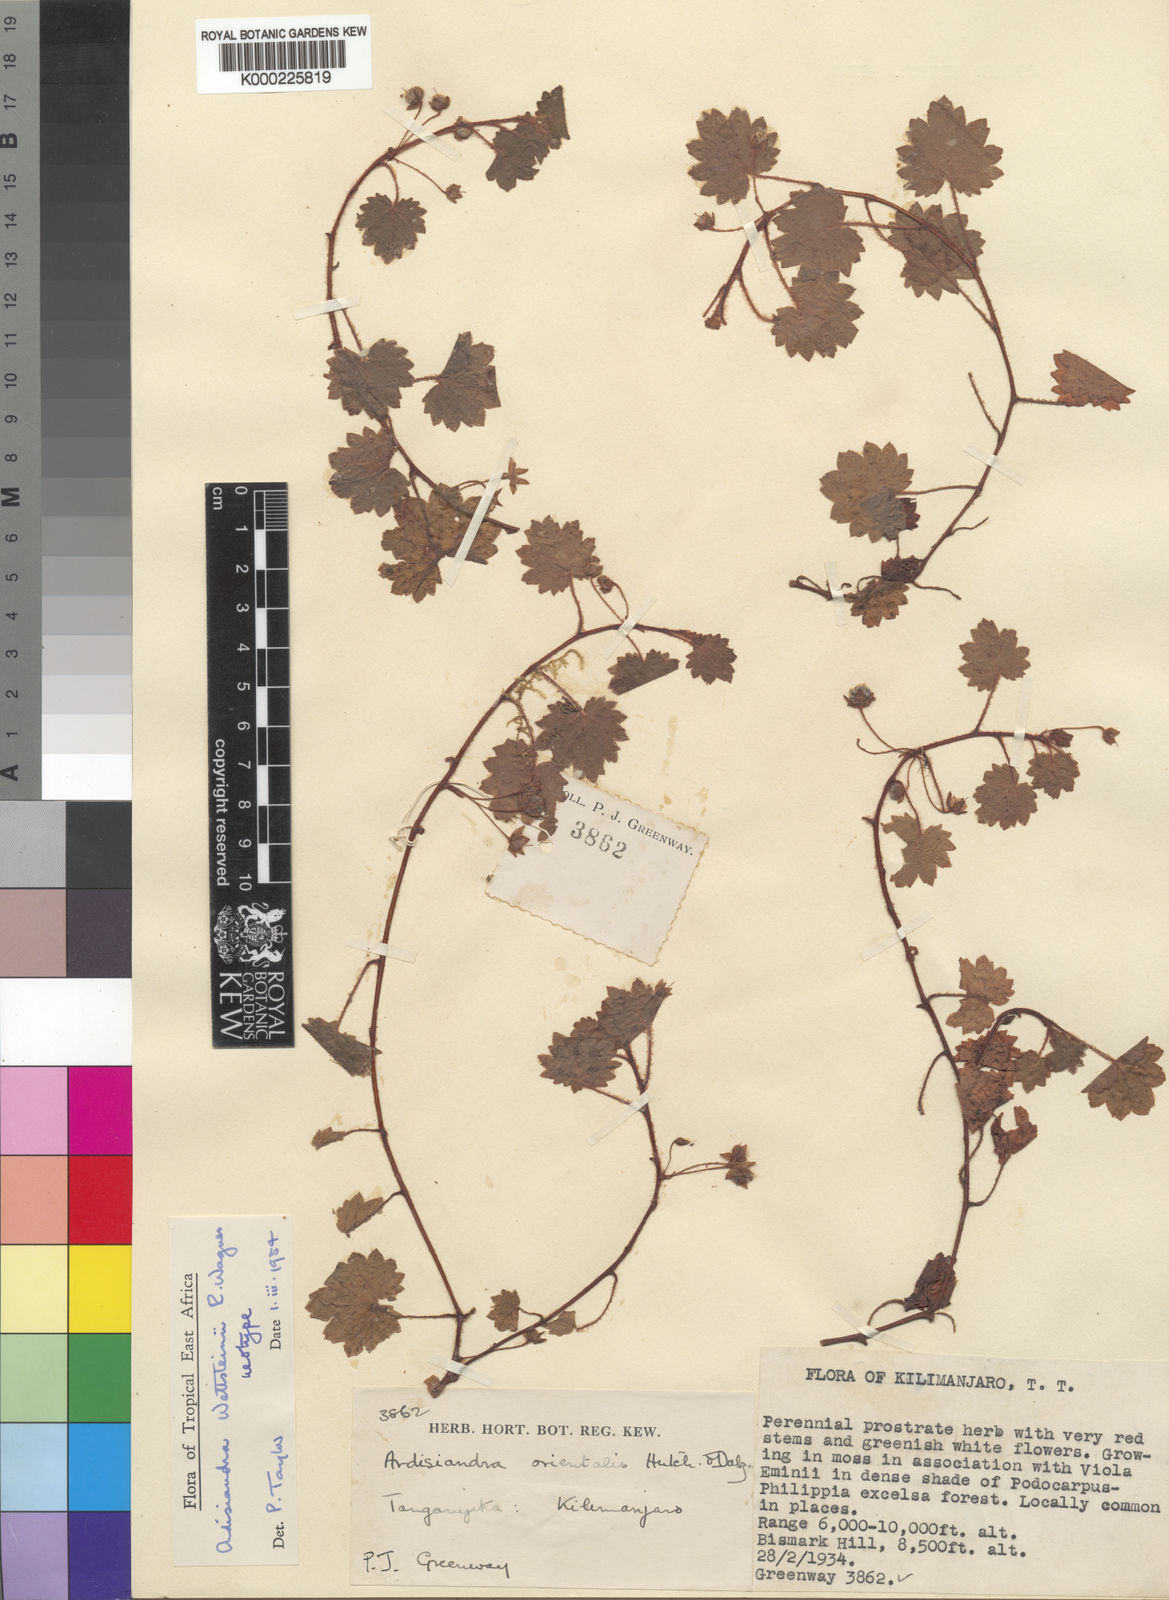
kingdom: Plantae
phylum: Tracheophyta
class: Magnoliopsida
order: Ericales
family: Primulaceae
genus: Ardisiandra
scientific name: Ardisiandra wettsteinii
